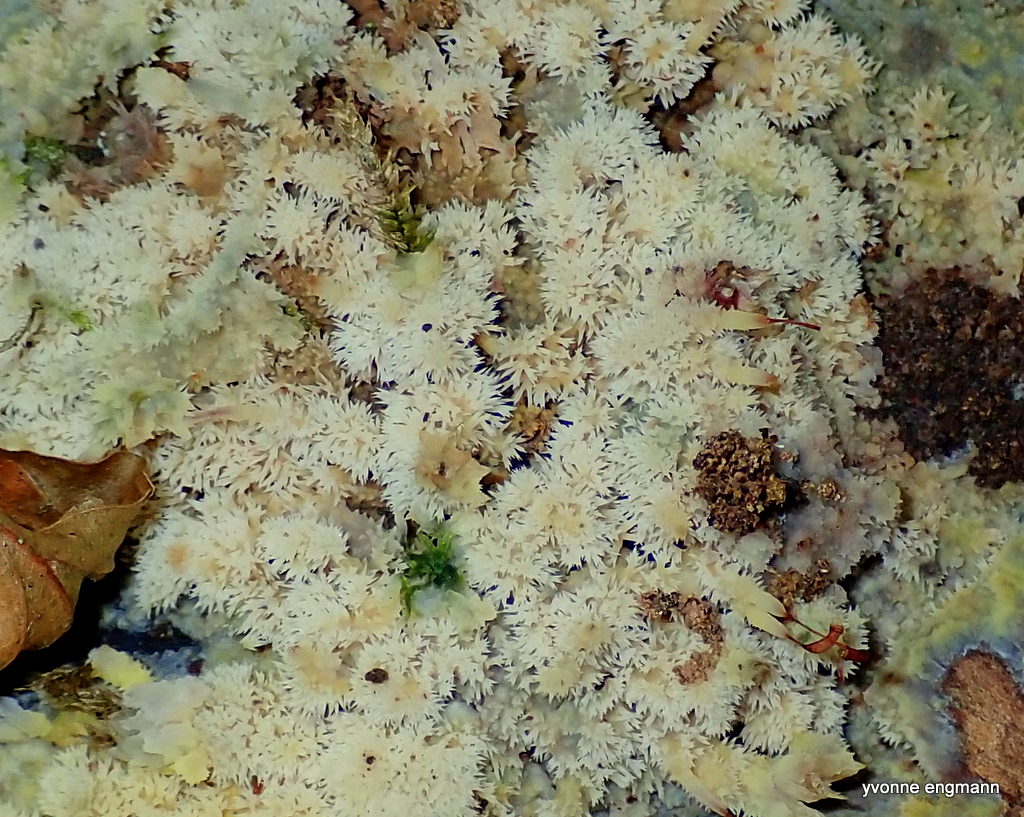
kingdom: Fungi
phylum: Basidiomycota
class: Agaricomycetes
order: Polyporales
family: Meruliaceae
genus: Mycoacia
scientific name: Mycoacia uda
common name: citrongul vokspig
